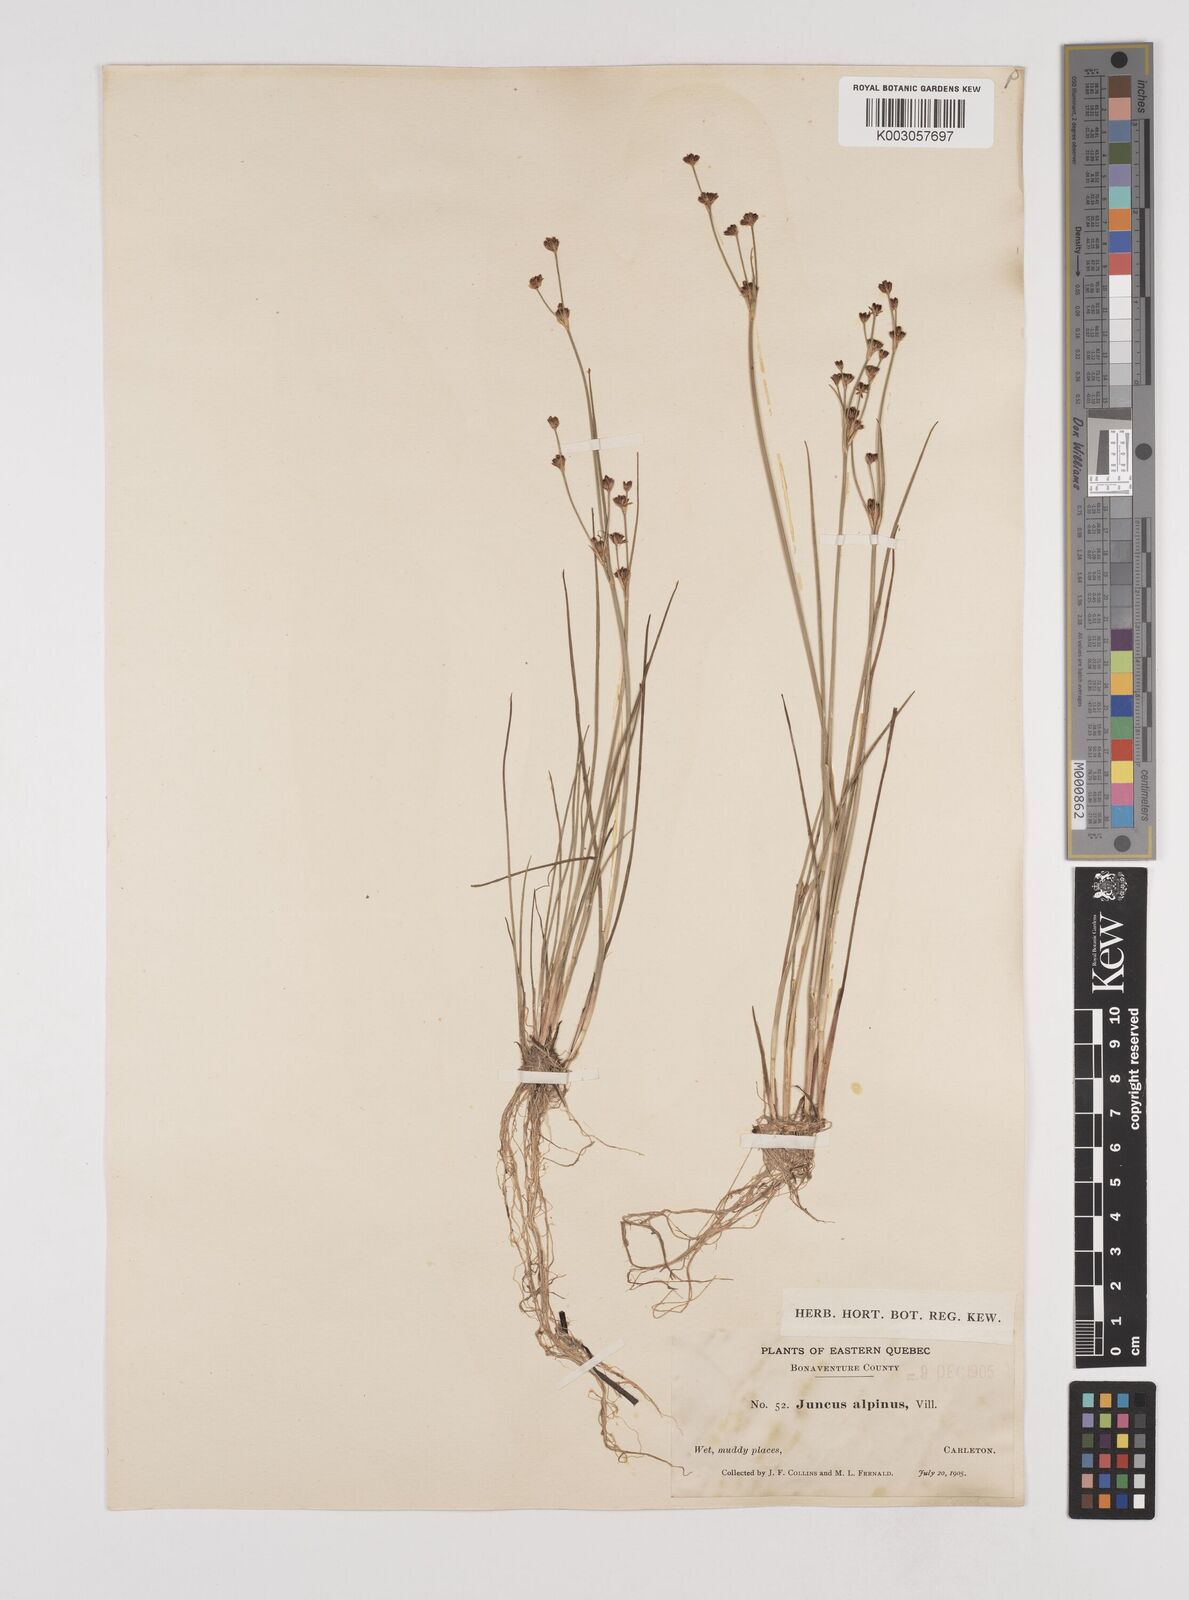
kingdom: Plantae
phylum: Tracheophyta
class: Liliopsida
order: Poales
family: Juncaceae
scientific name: Juncaceae
